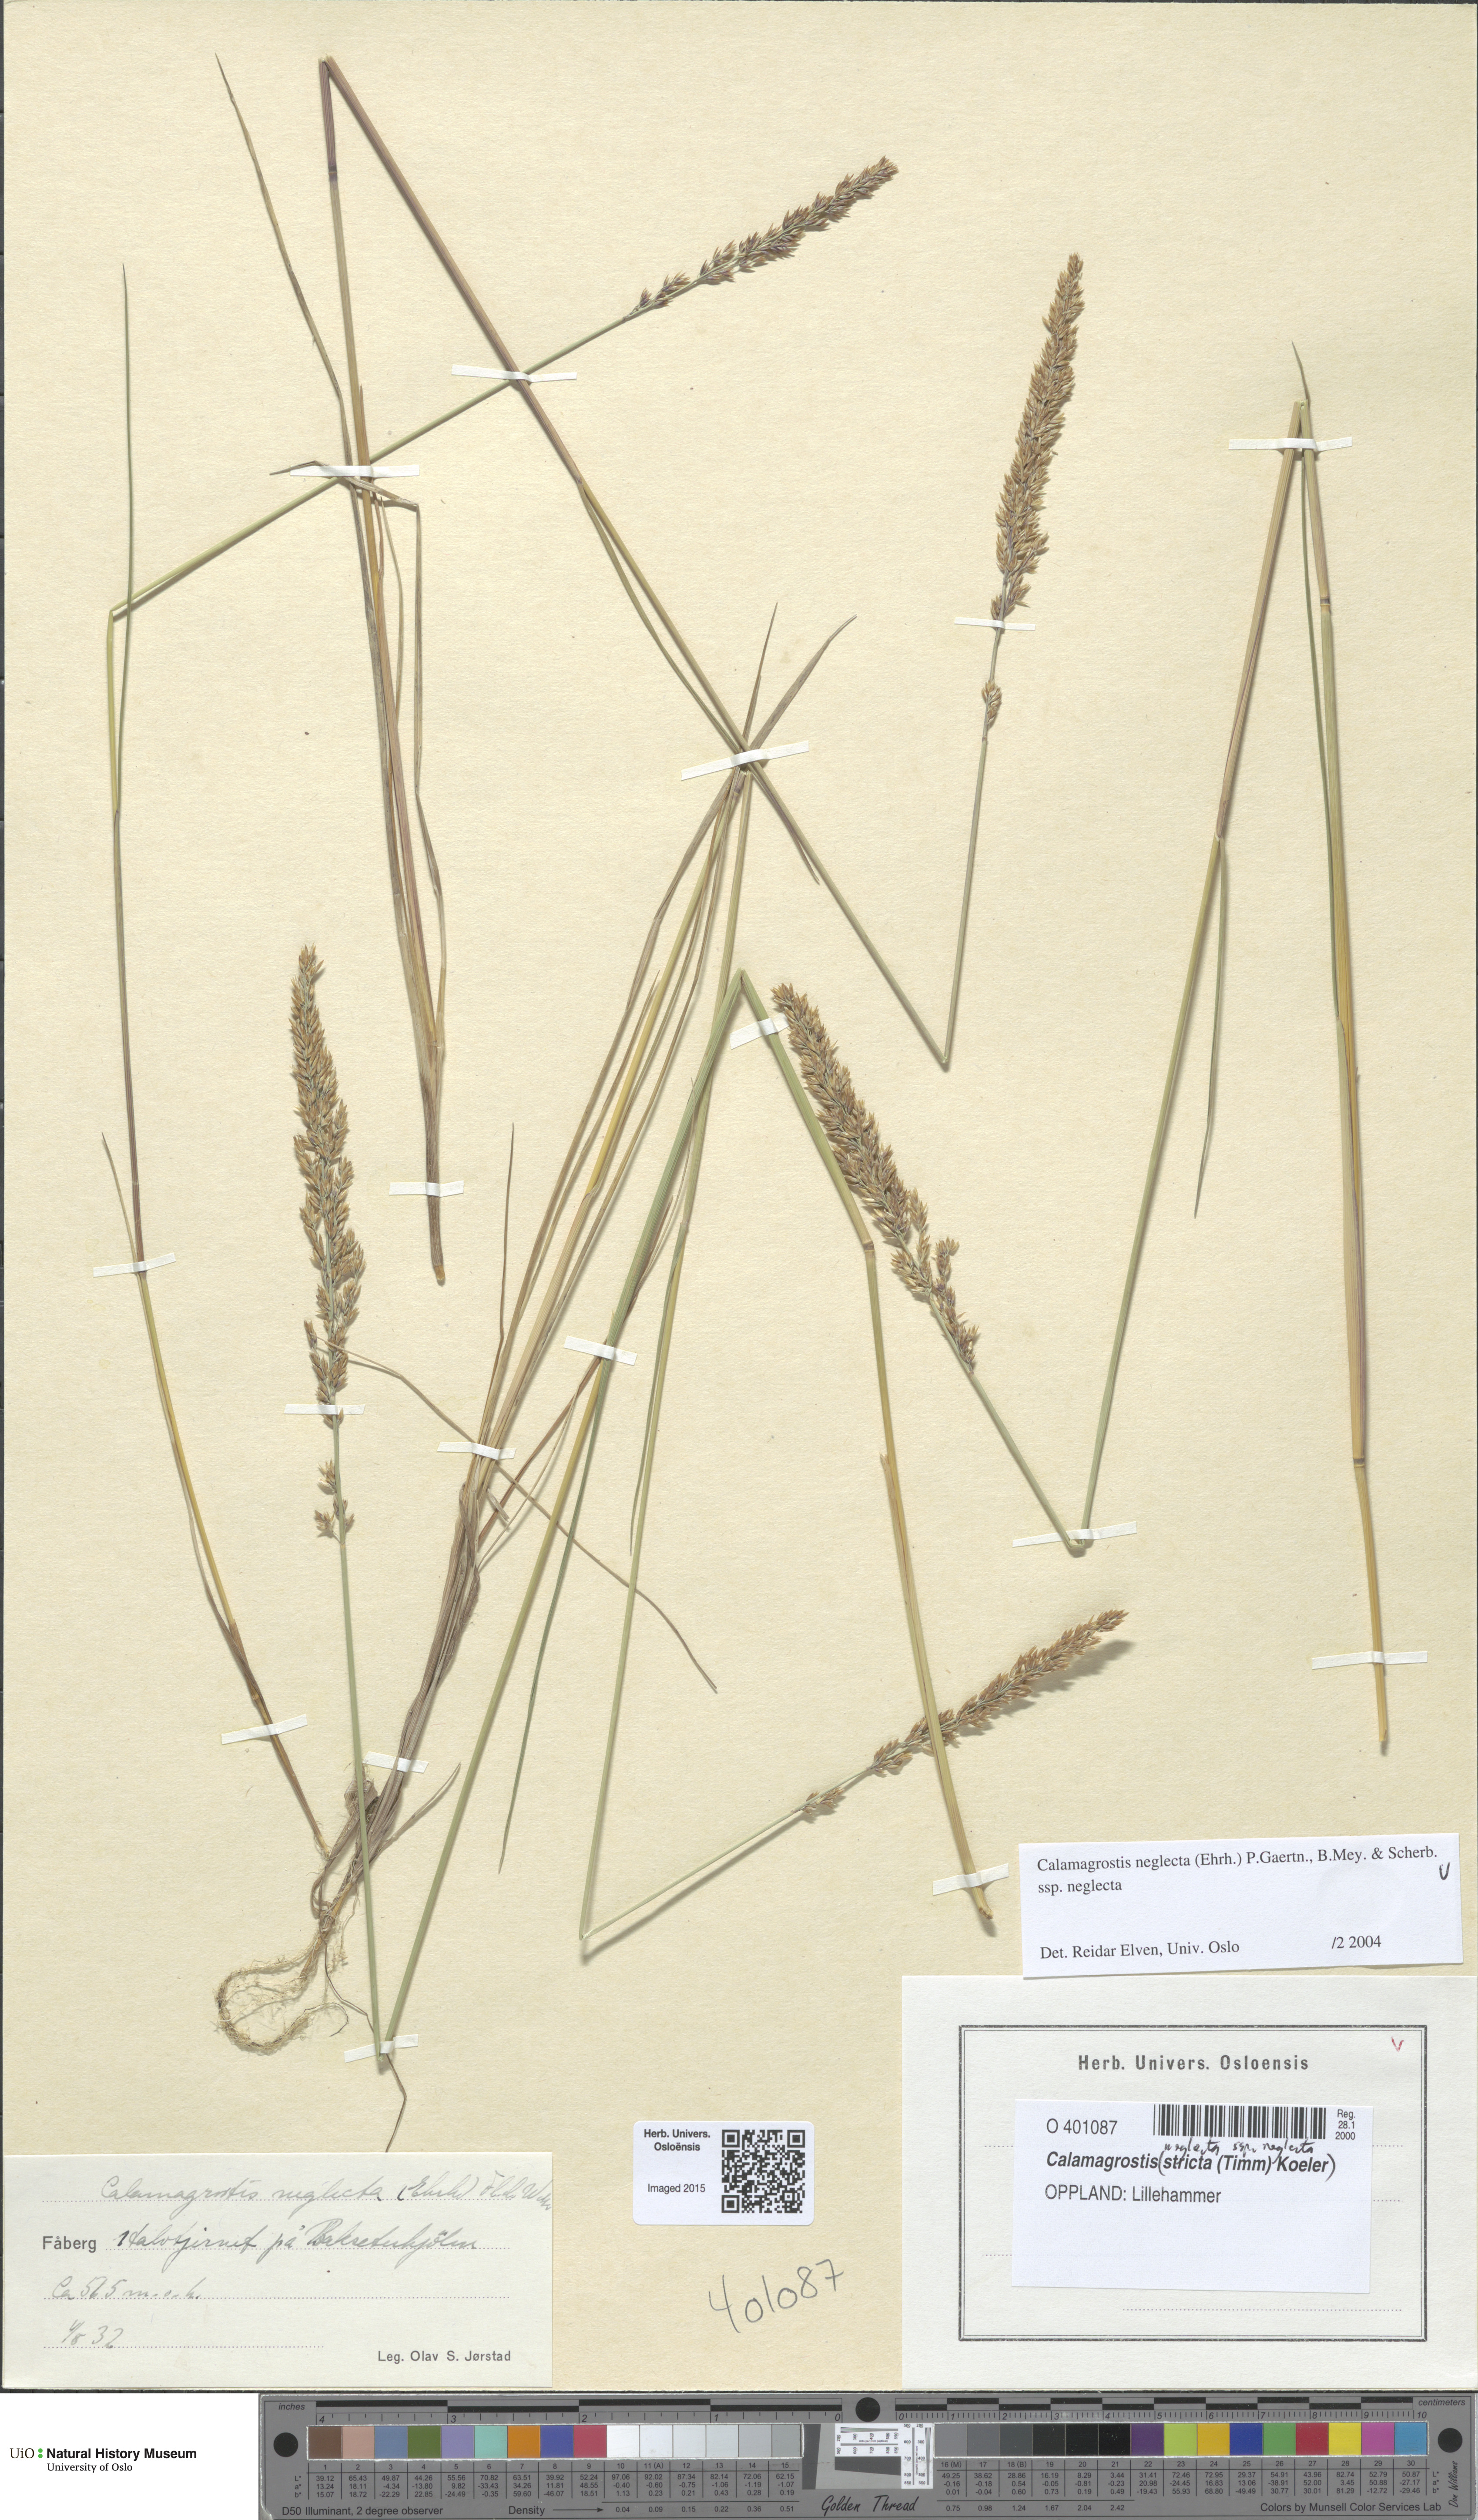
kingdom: Plantae
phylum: Tracheophyta
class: Liliopsida
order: Poales
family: Poaceae
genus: Achnatherum
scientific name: Achnatherum calamagrostis
